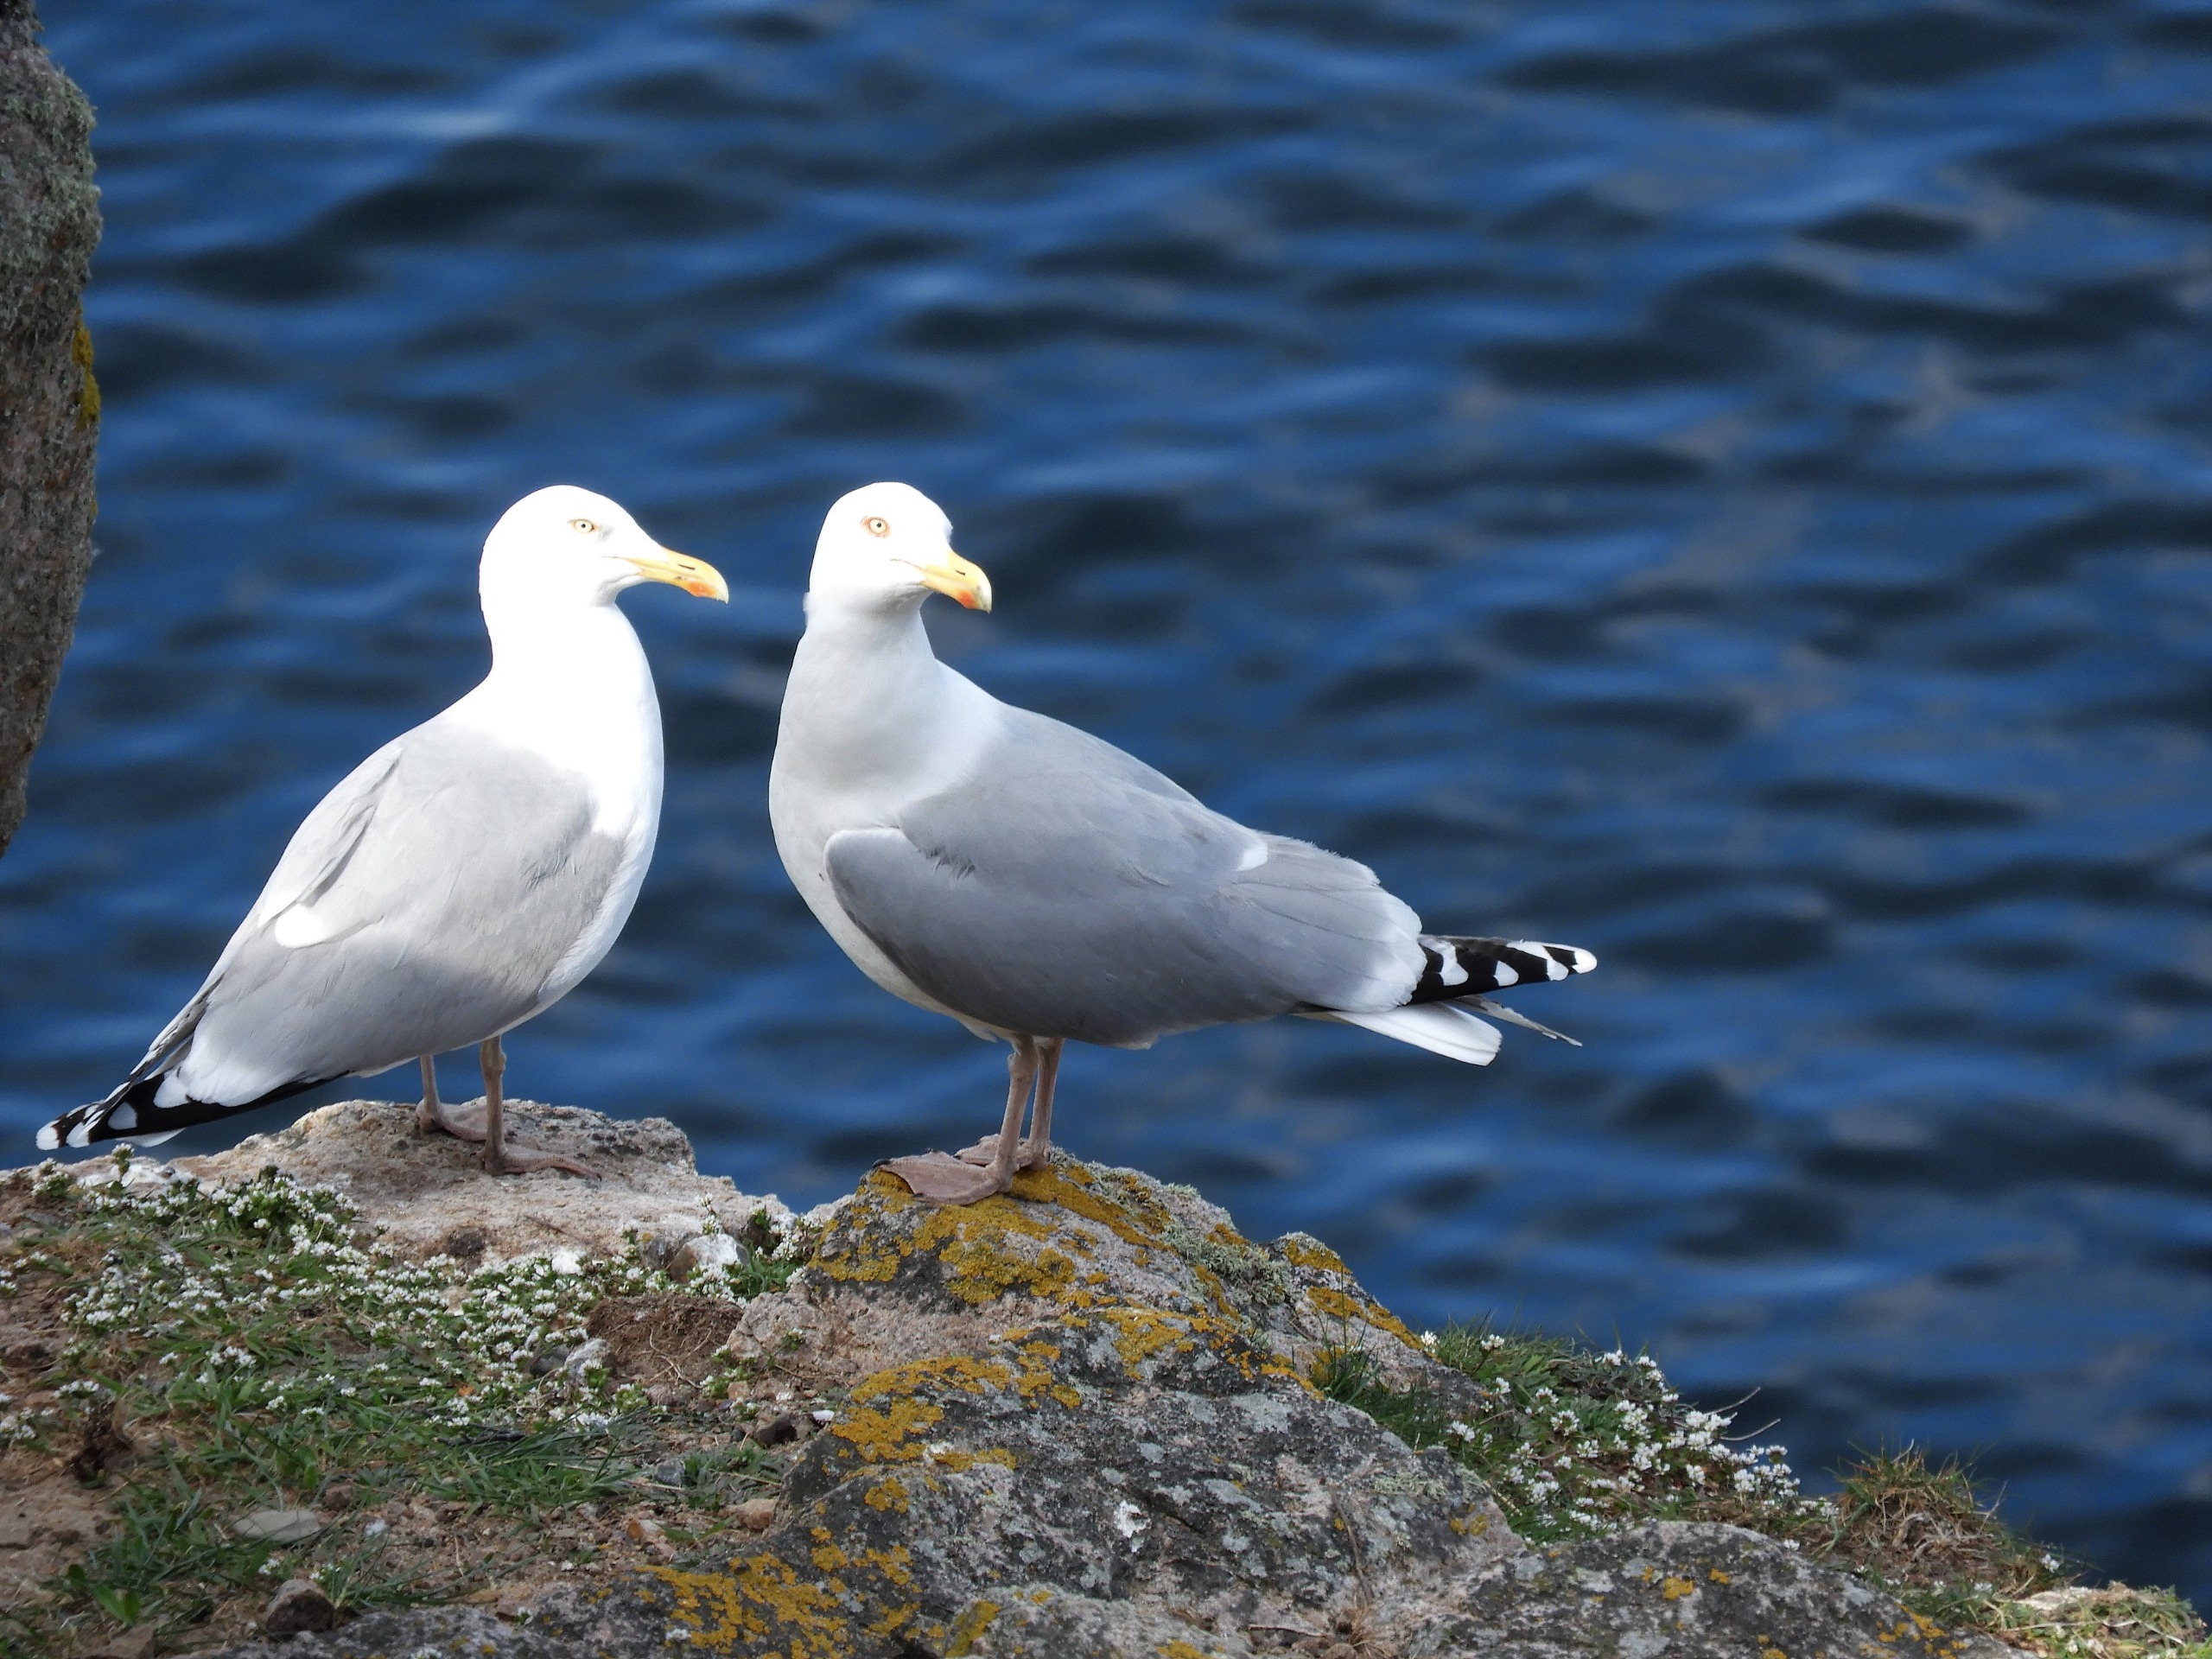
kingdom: Animalia
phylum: Chordata
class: Aves
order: Charadriiformes
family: Laridae
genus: Larus
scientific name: Larus argentatus
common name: Sølvmåge
